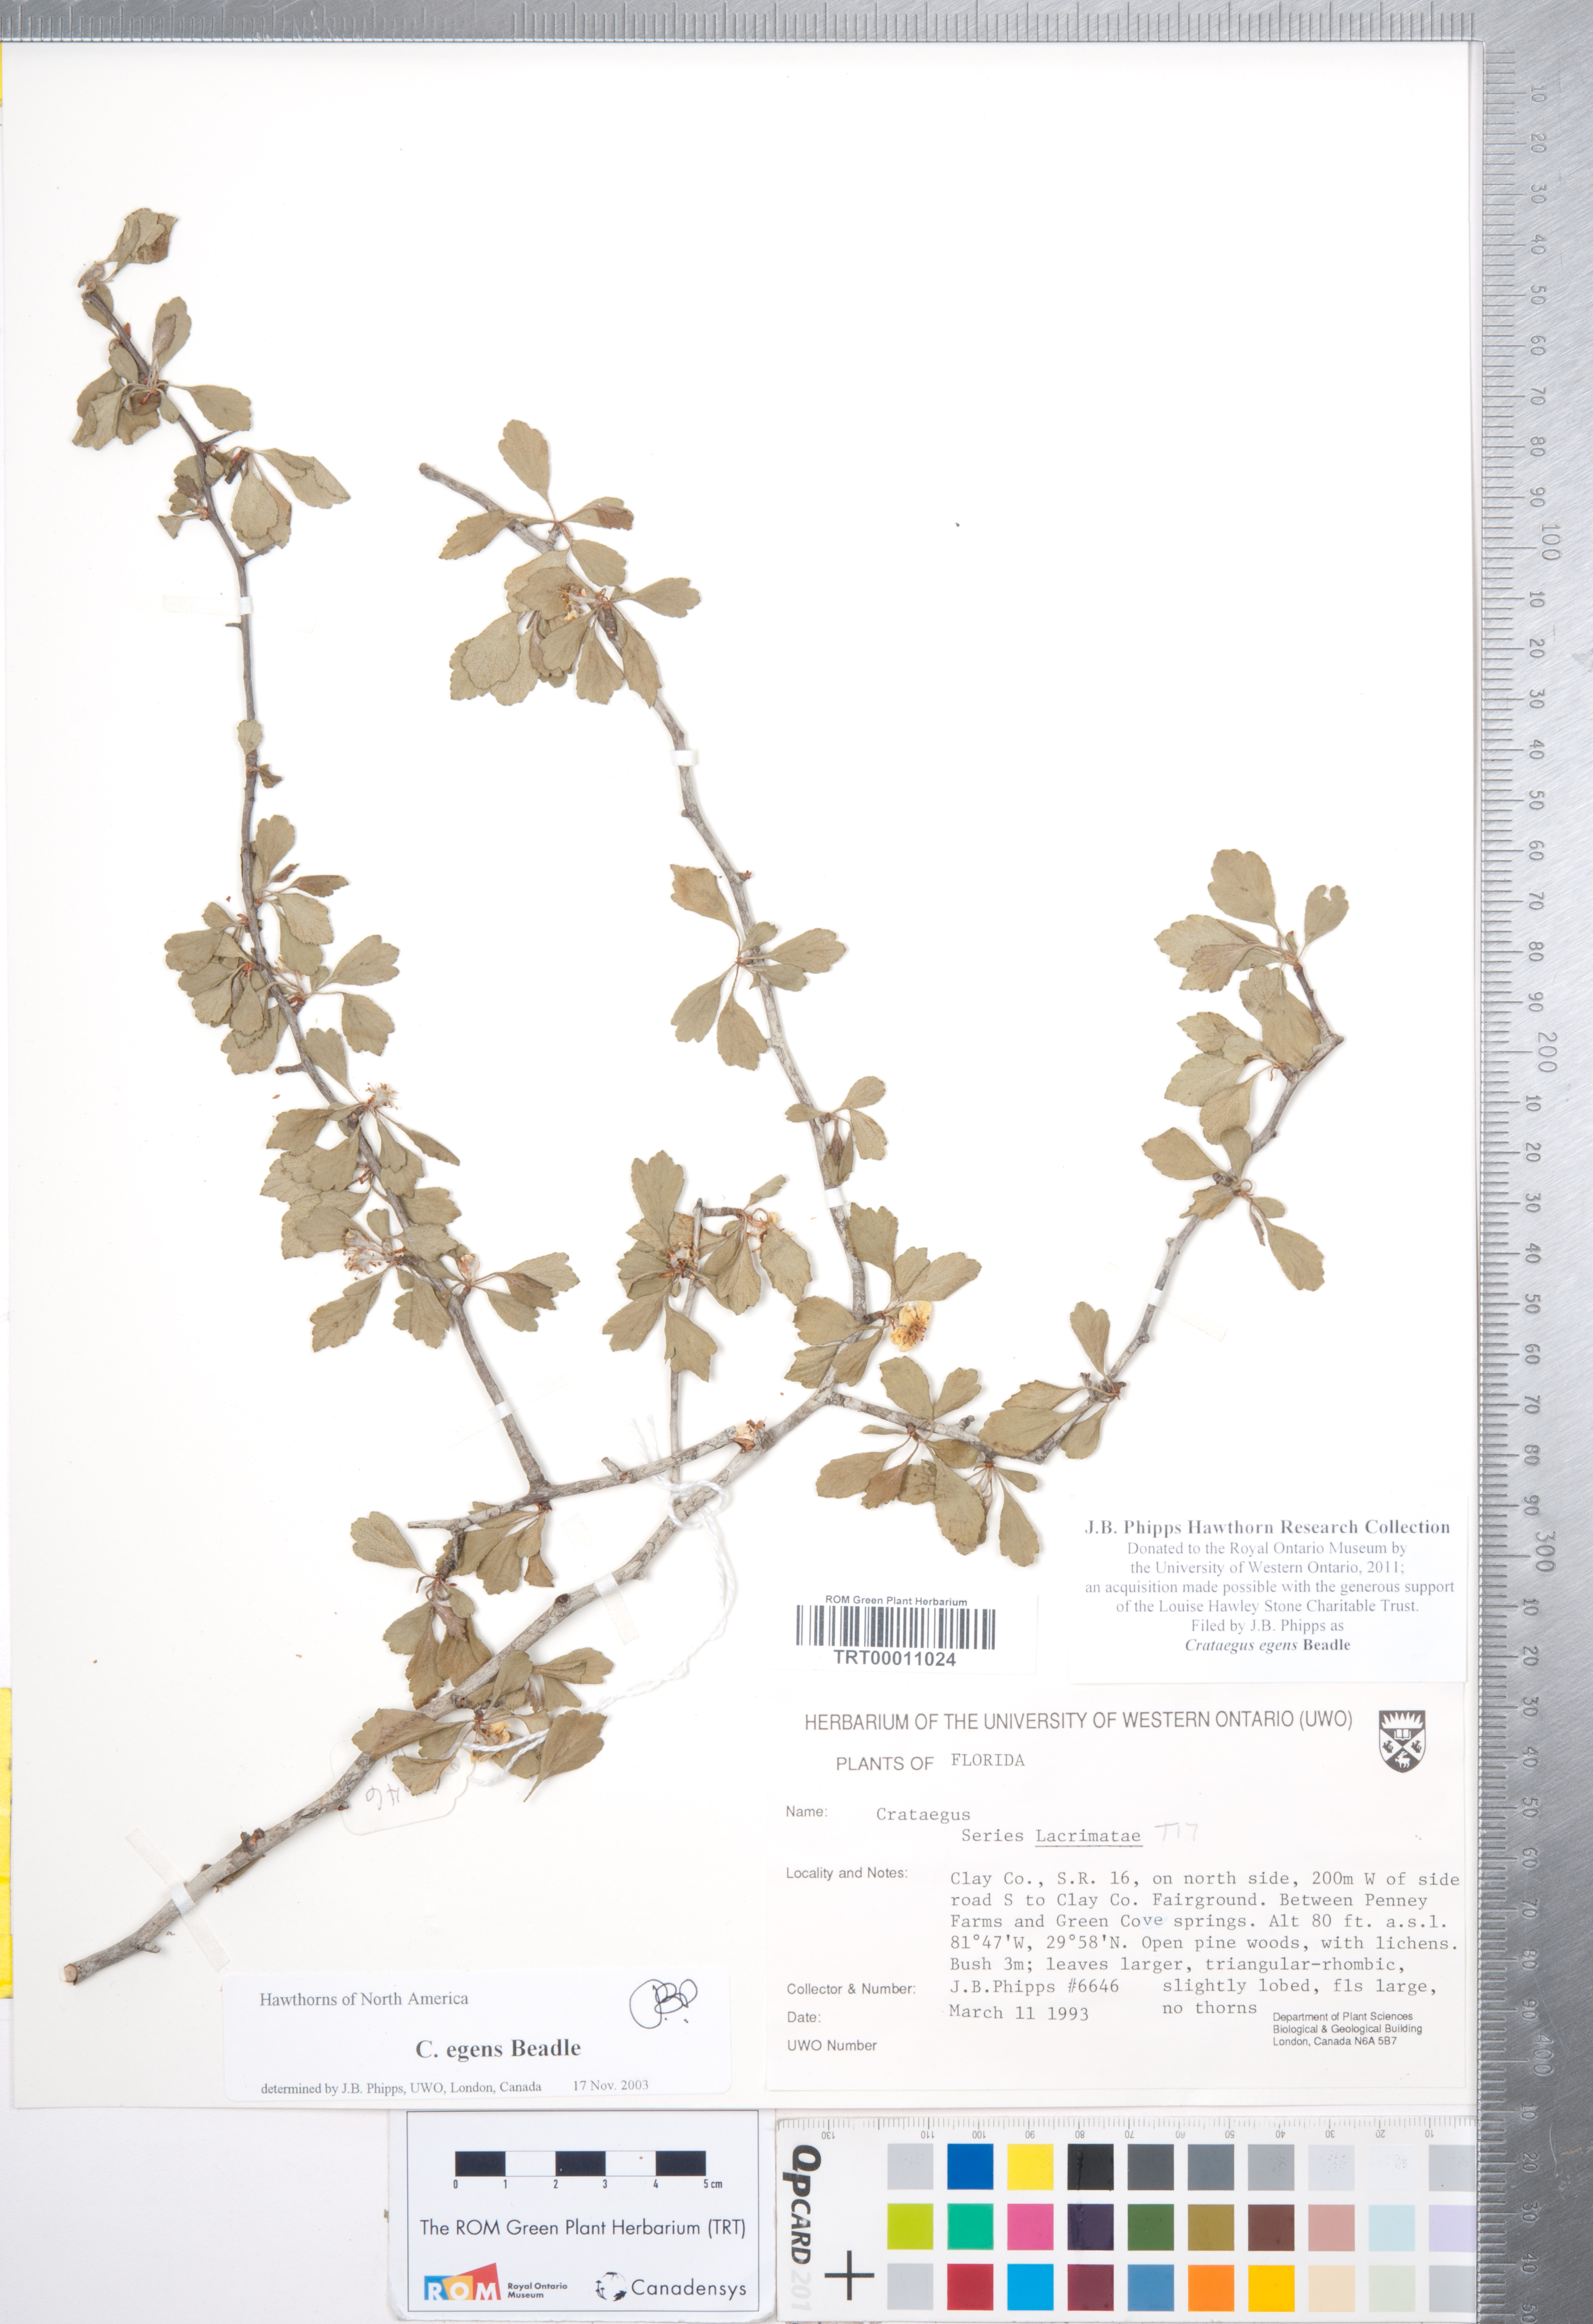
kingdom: Plantae
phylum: Tracheophyta
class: Magnoliopsida
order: Rosales
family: Rosaceae
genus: Crataegus
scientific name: Crataegus senta
